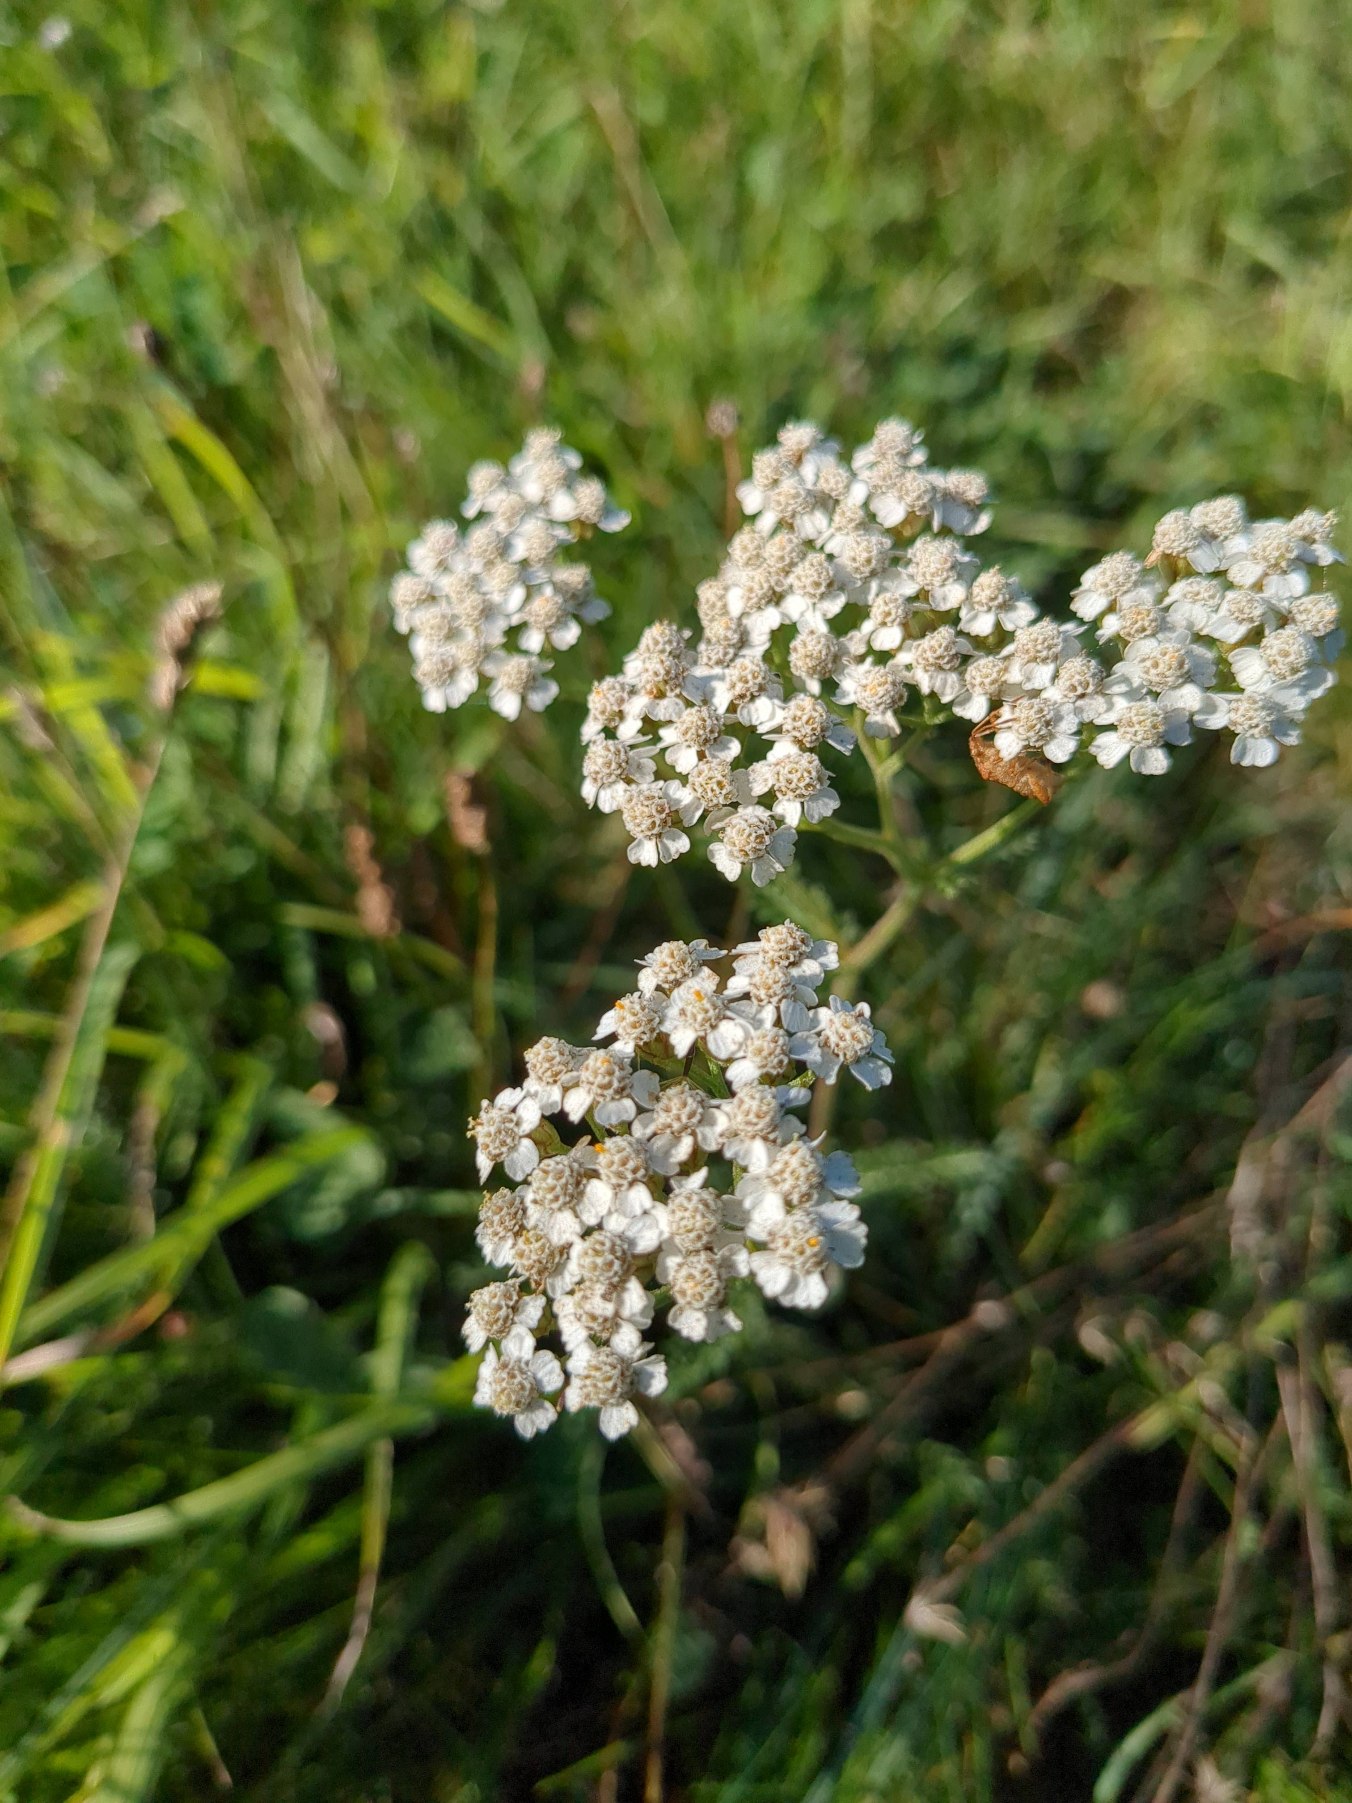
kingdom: Plantae
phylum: Tracheophyta
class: Magnoliopsida
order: Asterales
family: Asteraceae
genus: Achillea
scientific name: Achillea millefolium
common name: Almindelig røllike
